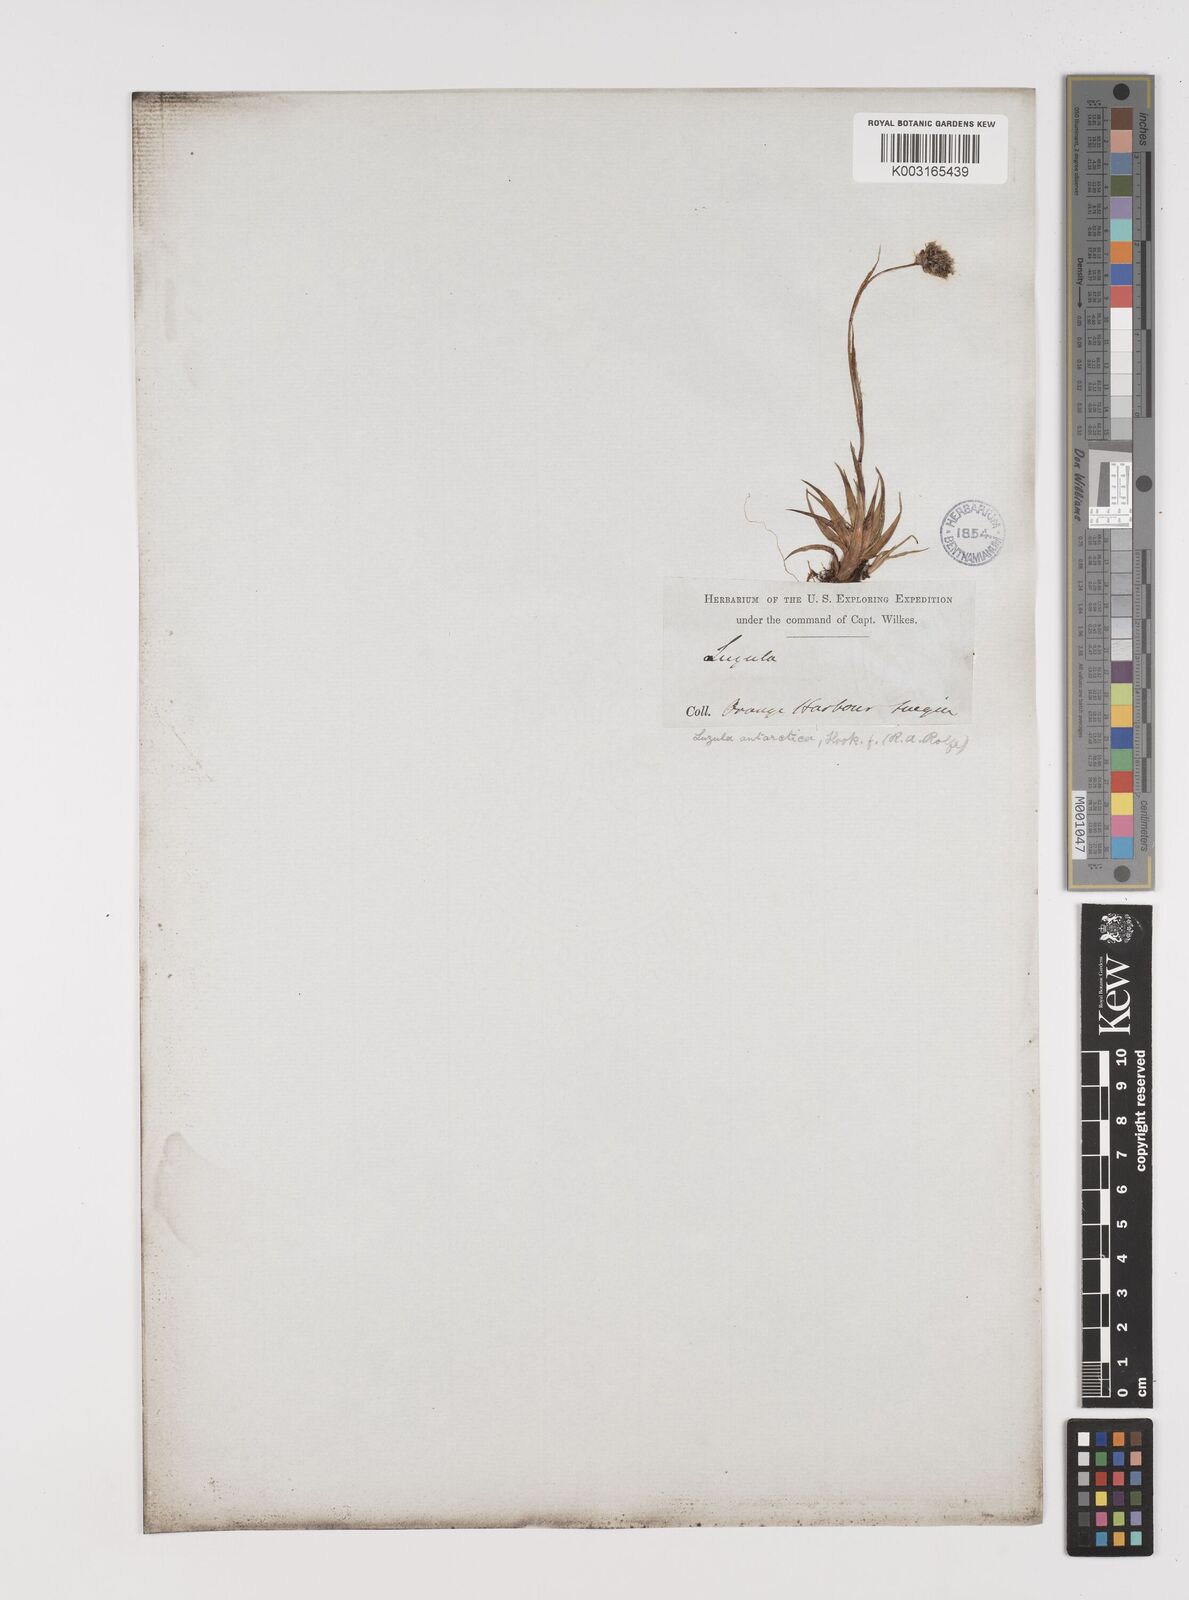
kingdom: Plantae
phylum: Tracheophyta
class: Liliopsida
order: Poales
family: Juncaceae
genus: Luzula
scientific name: Luzula antarctica
